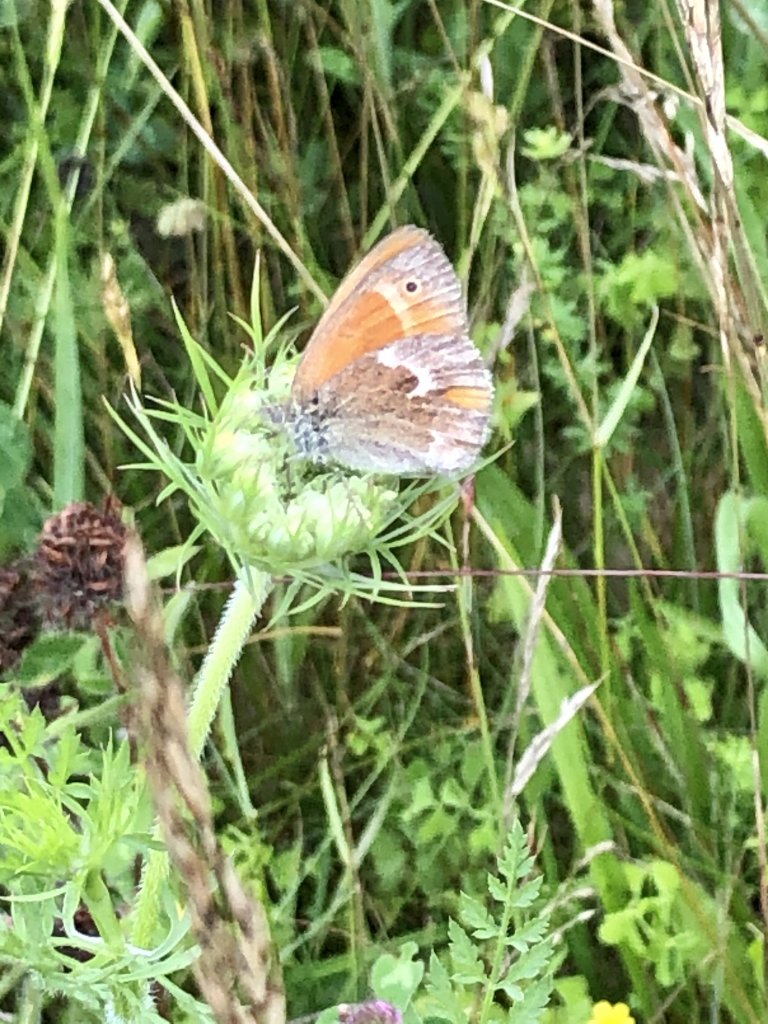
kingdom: Animalia
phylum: Arthropoda
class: Insecta
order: Lepidoptera
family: Nymphalidae
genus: Coenonympha
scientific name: Coenonympha tullia
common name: Large Heath
